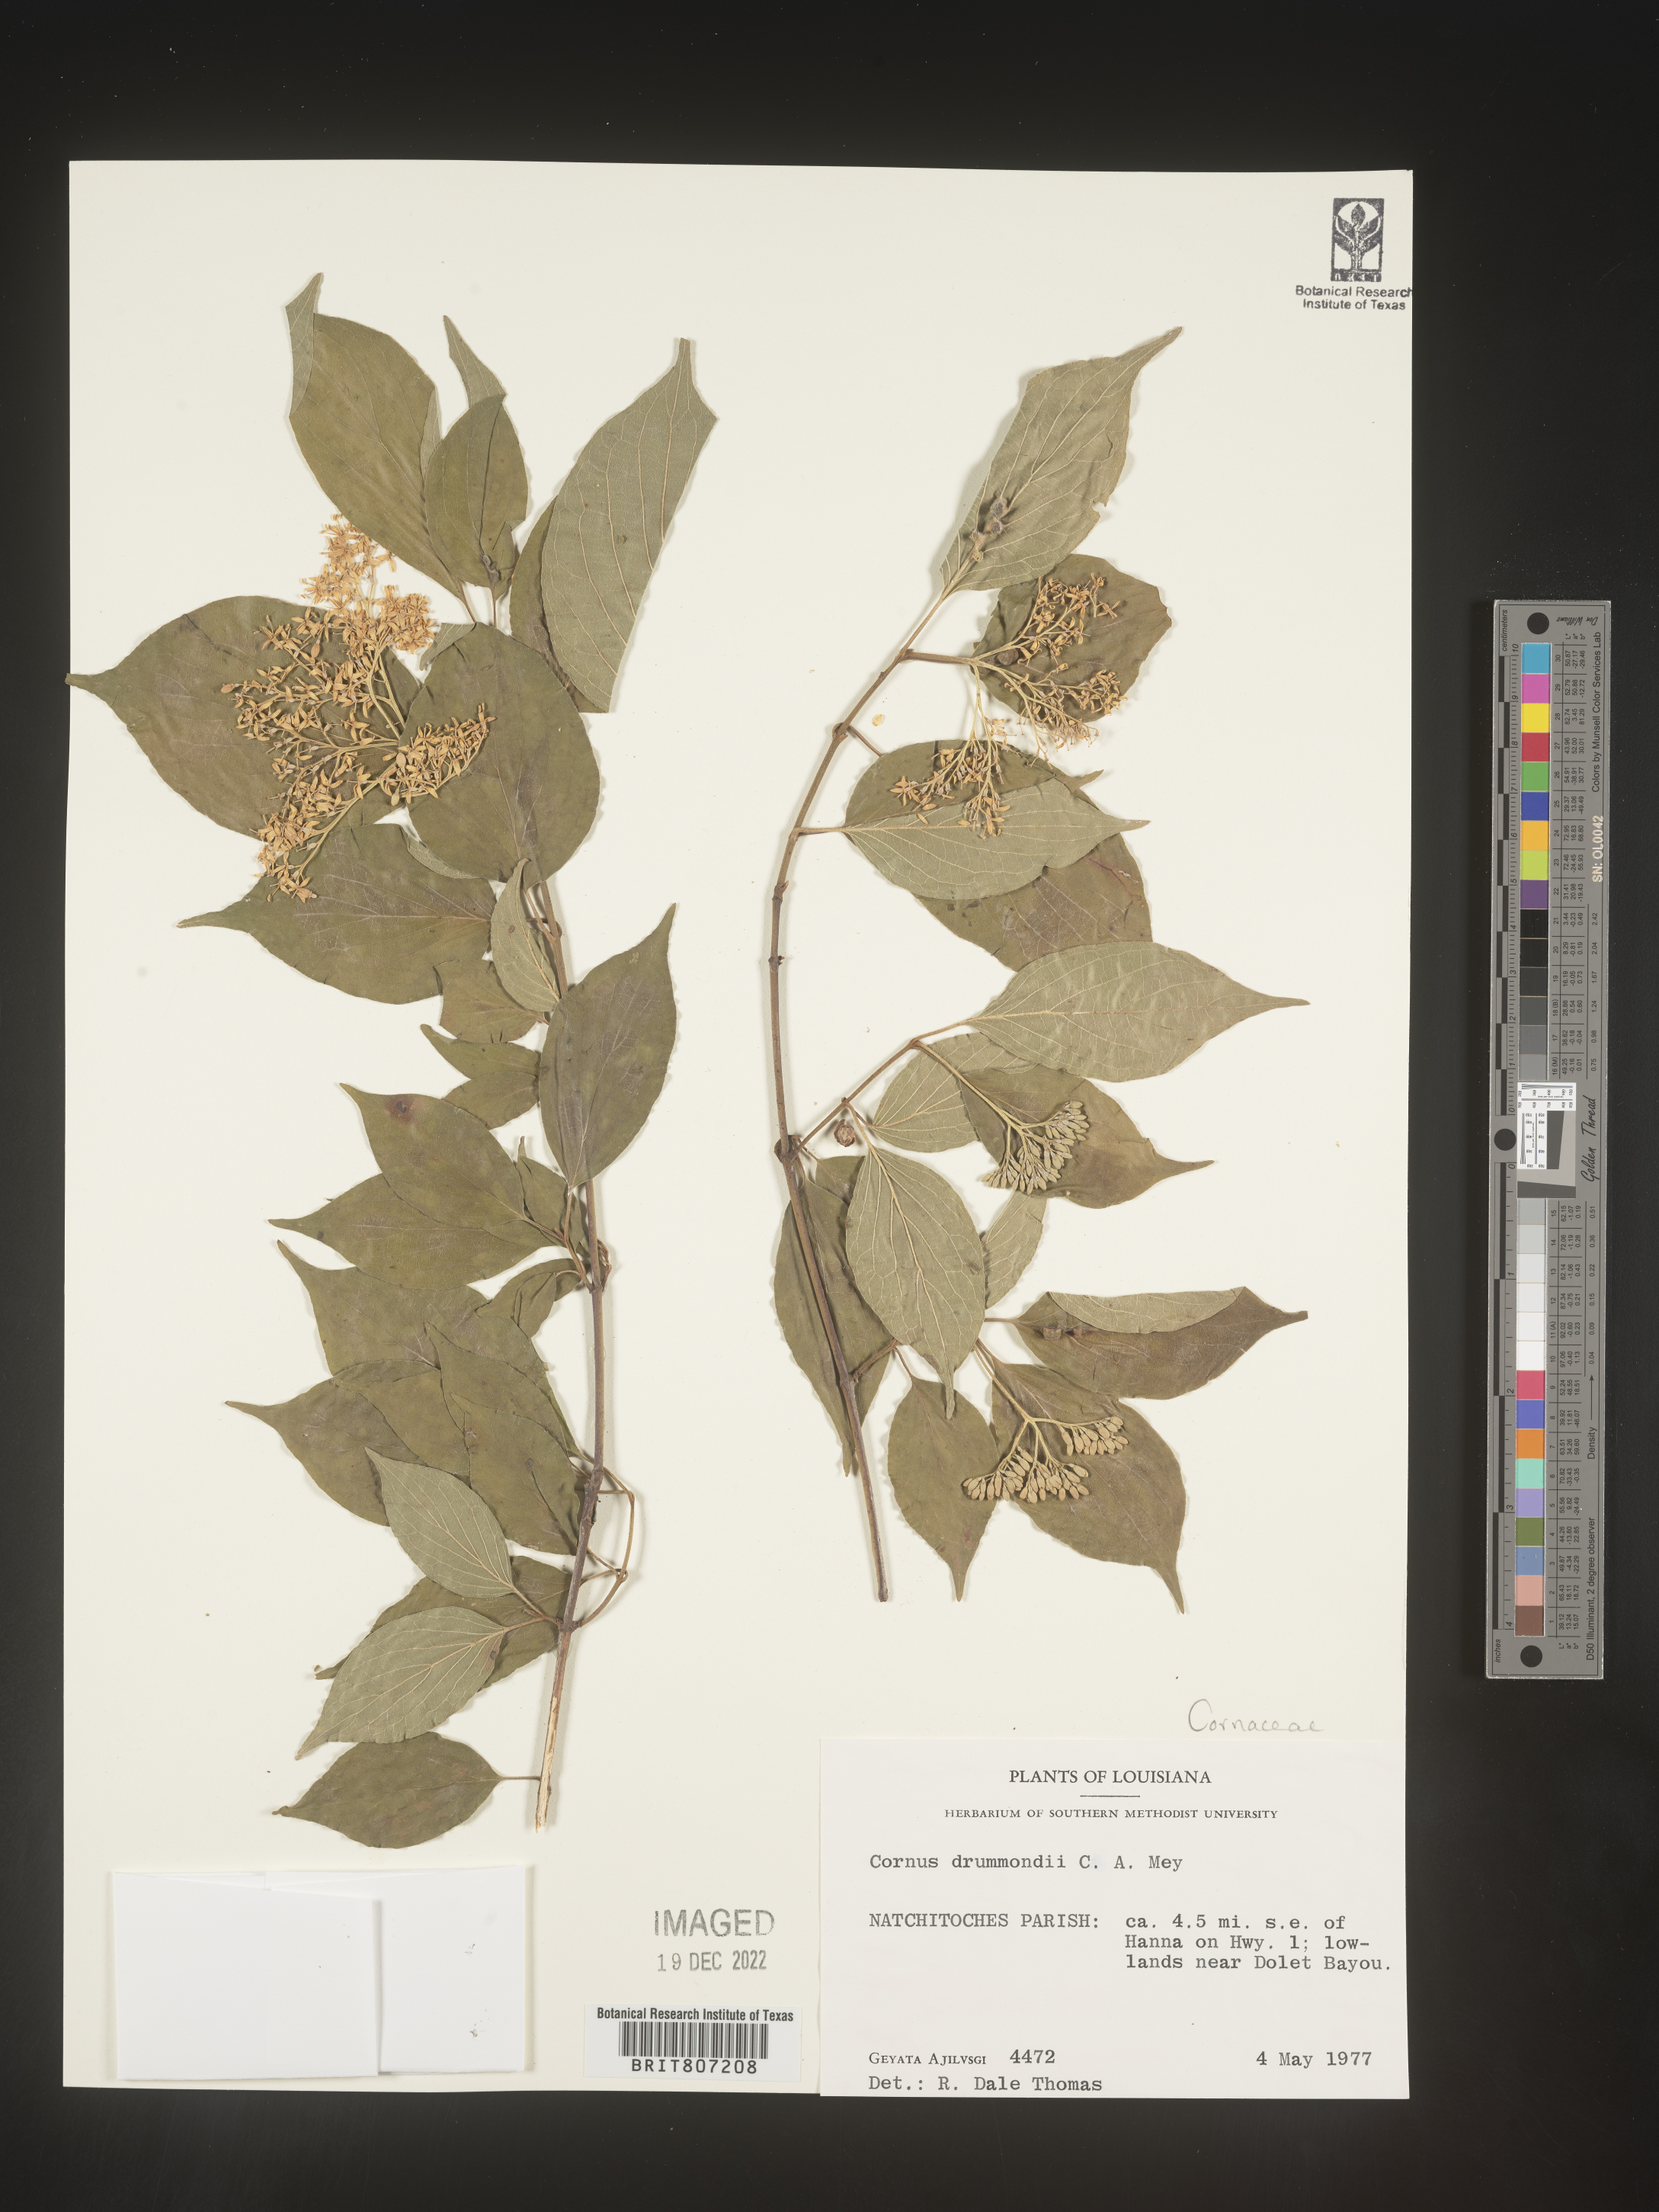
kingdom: Plantae
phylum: Tracheophyta
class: Magnoliopsida
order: Cornales
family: Cornaceae
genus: Cornus
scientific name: Cornus drummondii
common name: Rough-leaf dogwood
